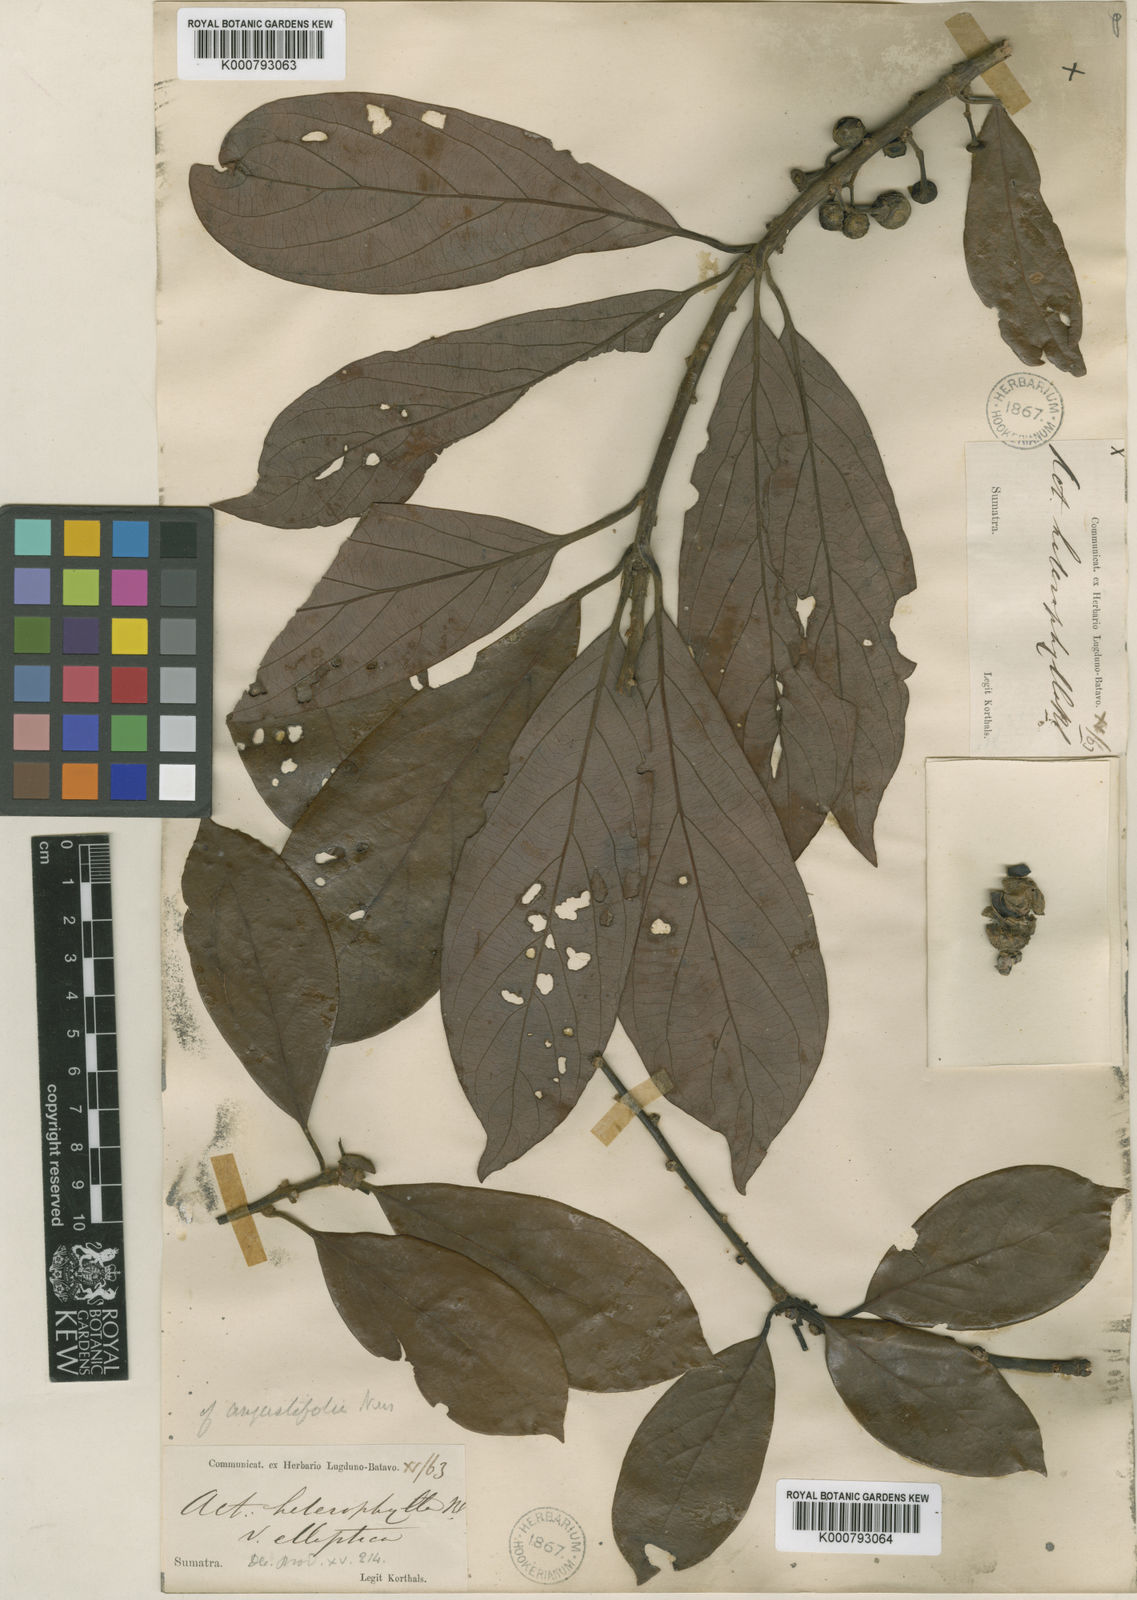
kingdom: Plantae
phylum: Tracheophyta
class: Magnoliopsida
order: Laurales
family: Lauraceae
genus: Actinodaphne
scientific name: Actinodaphne angustifolia
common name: Pisatree
